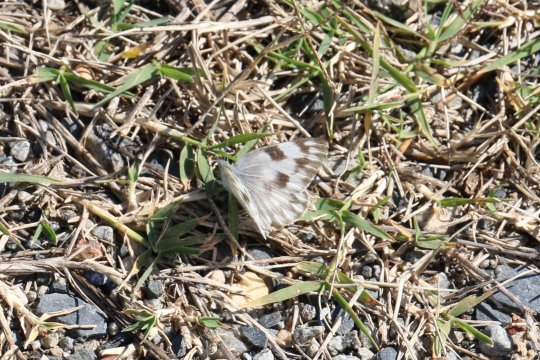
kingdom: Animalia
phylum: Arthropoda
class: Insecta
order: Lepidoptera
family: Pieridae
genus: Pontia
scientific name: Pontia protodice
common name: Checkered White
